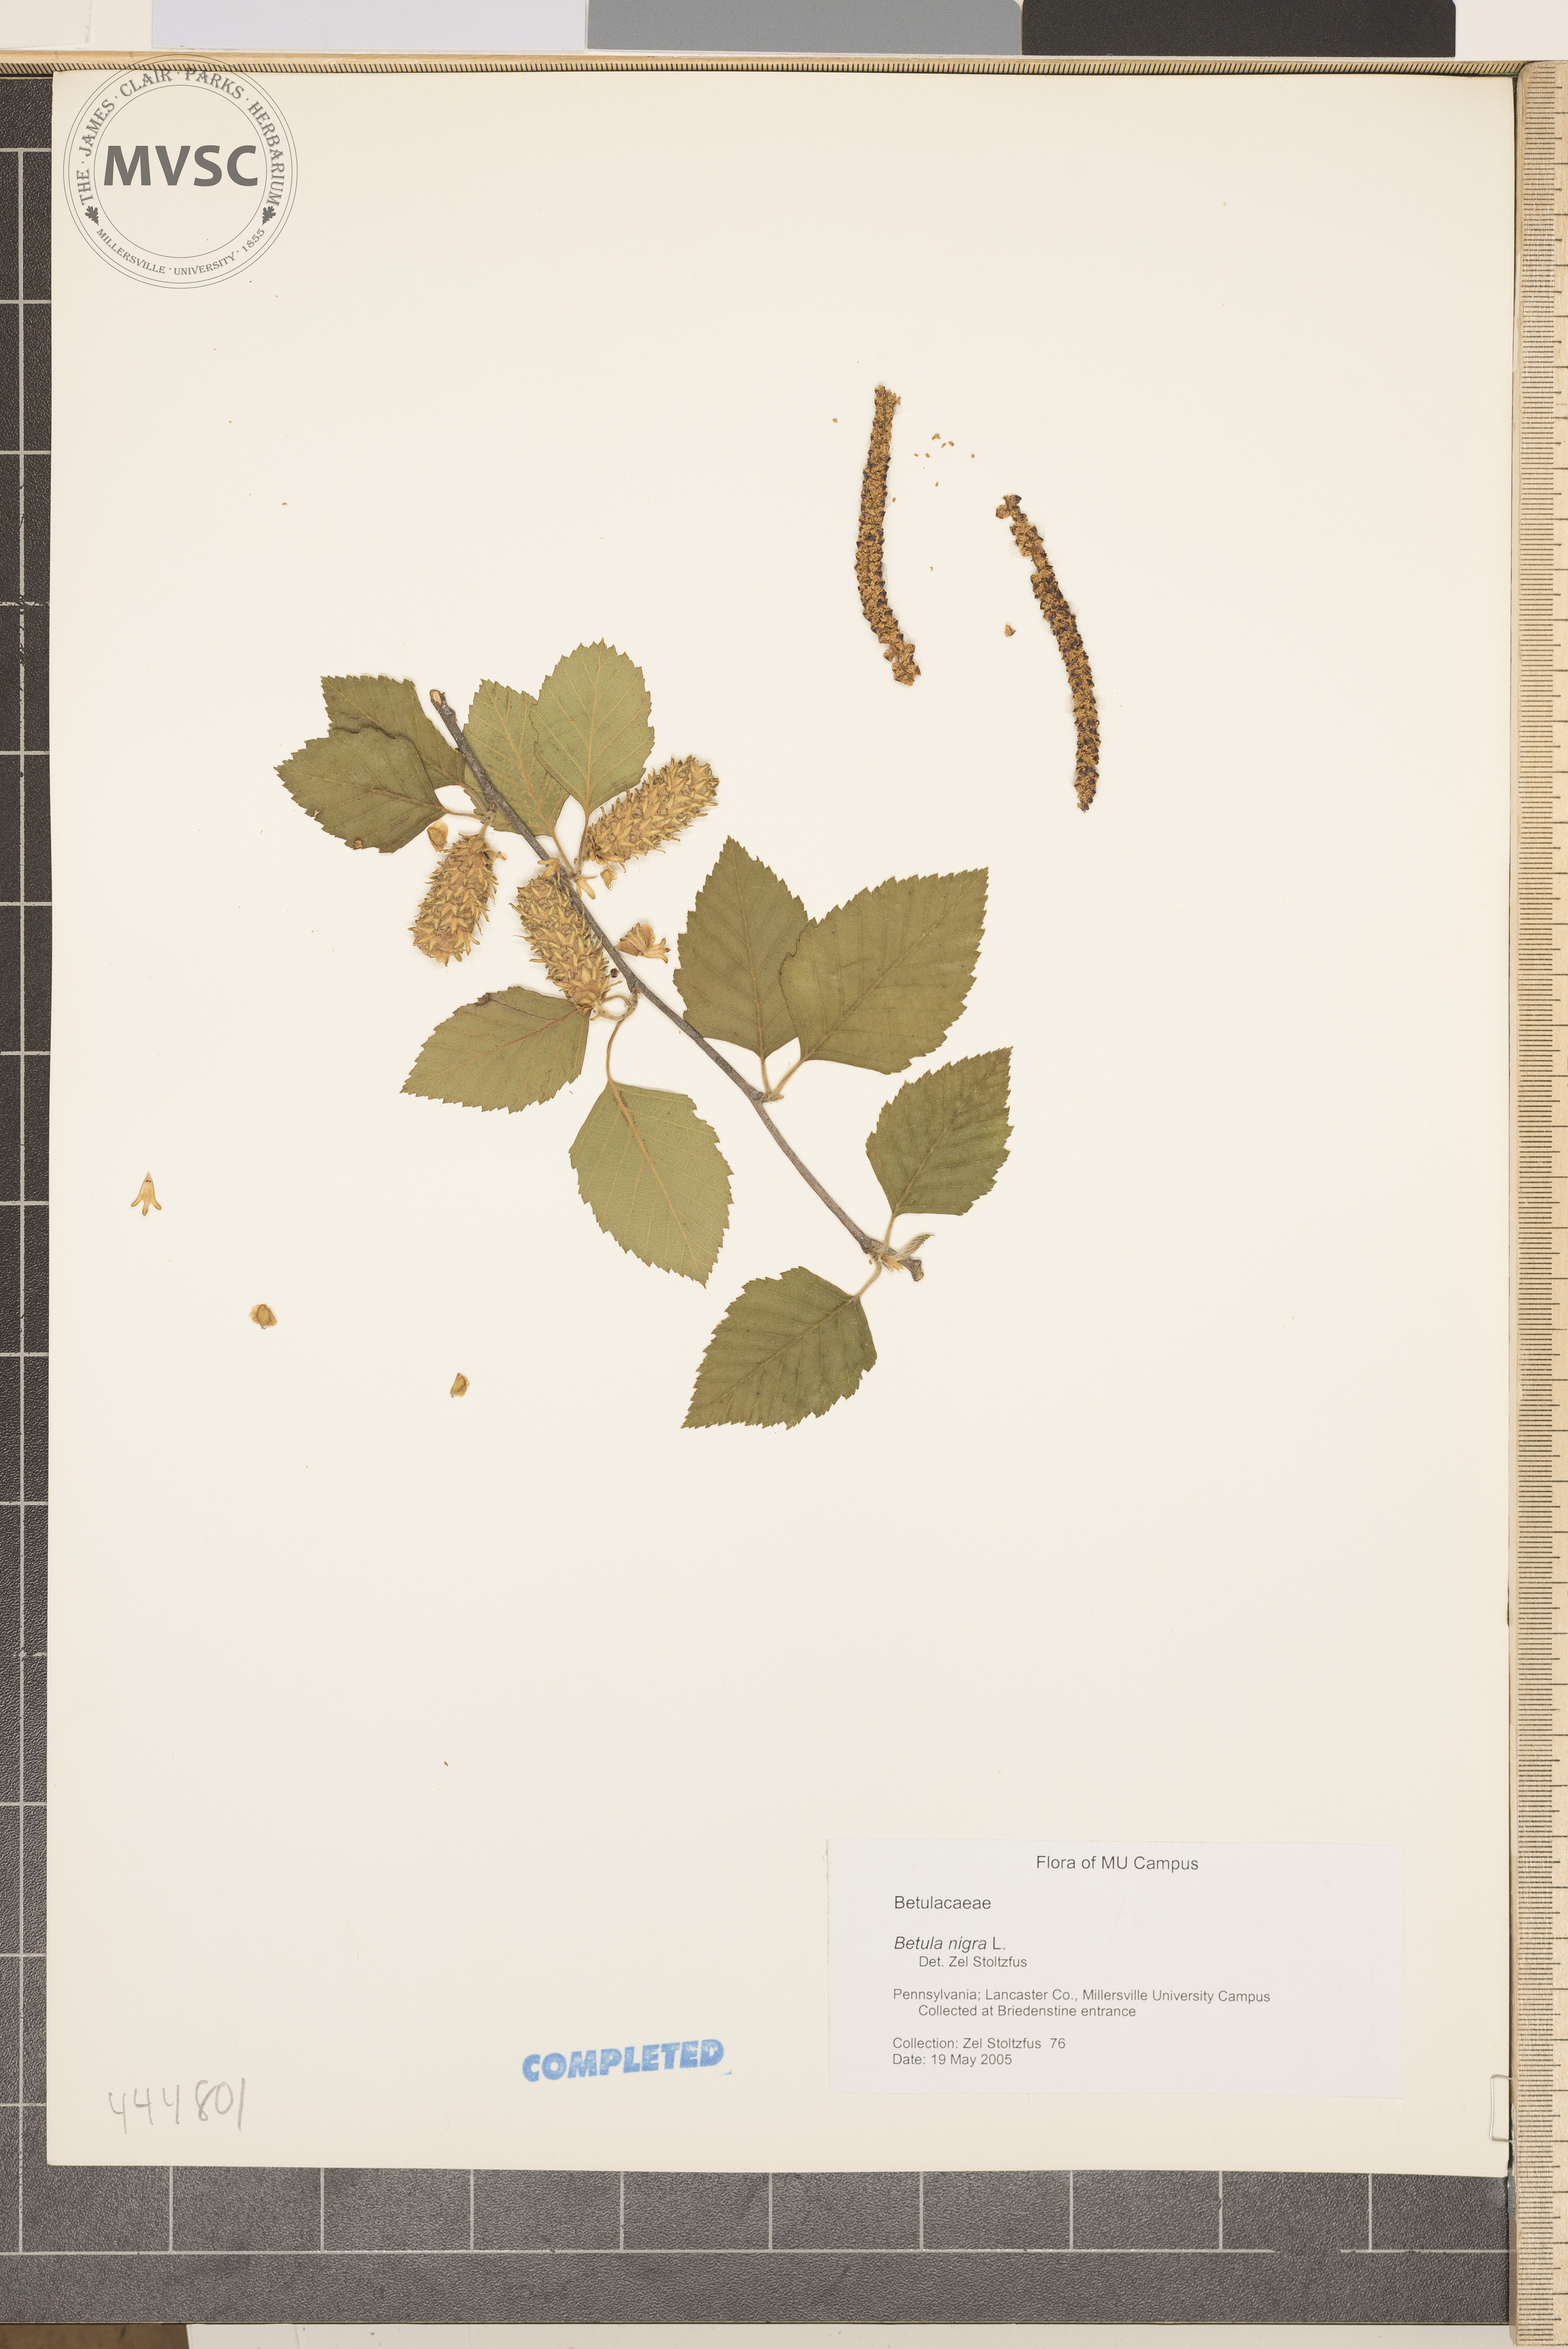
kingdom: Plantae
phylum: Tracheophyta
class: Magnoliopsida
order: Fagales
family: Betulaceae
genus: Betula
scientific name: Betula nigra
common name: Black birch
